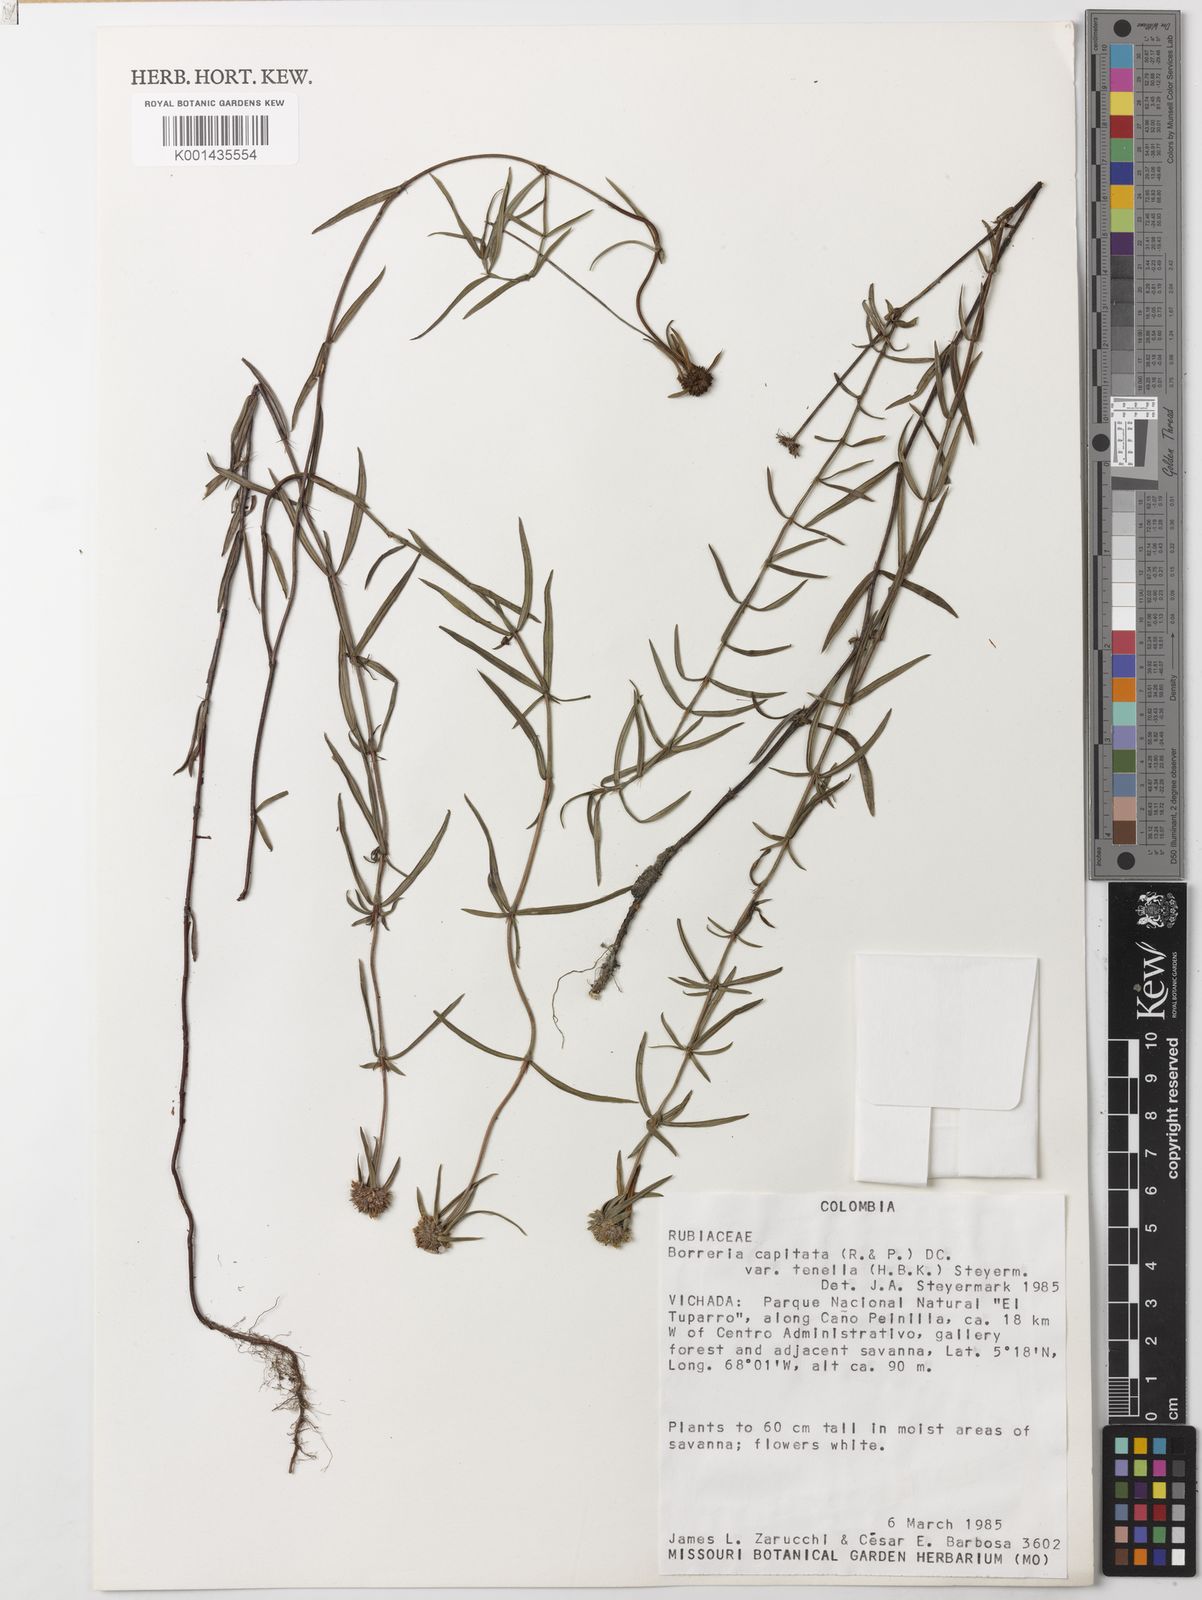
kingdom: Plantae
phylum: Tracheophyta
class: Magnoliopsida
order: Gentianales
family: Rubiaceae
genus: Spermacoce
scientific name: Spermacoce capitata
